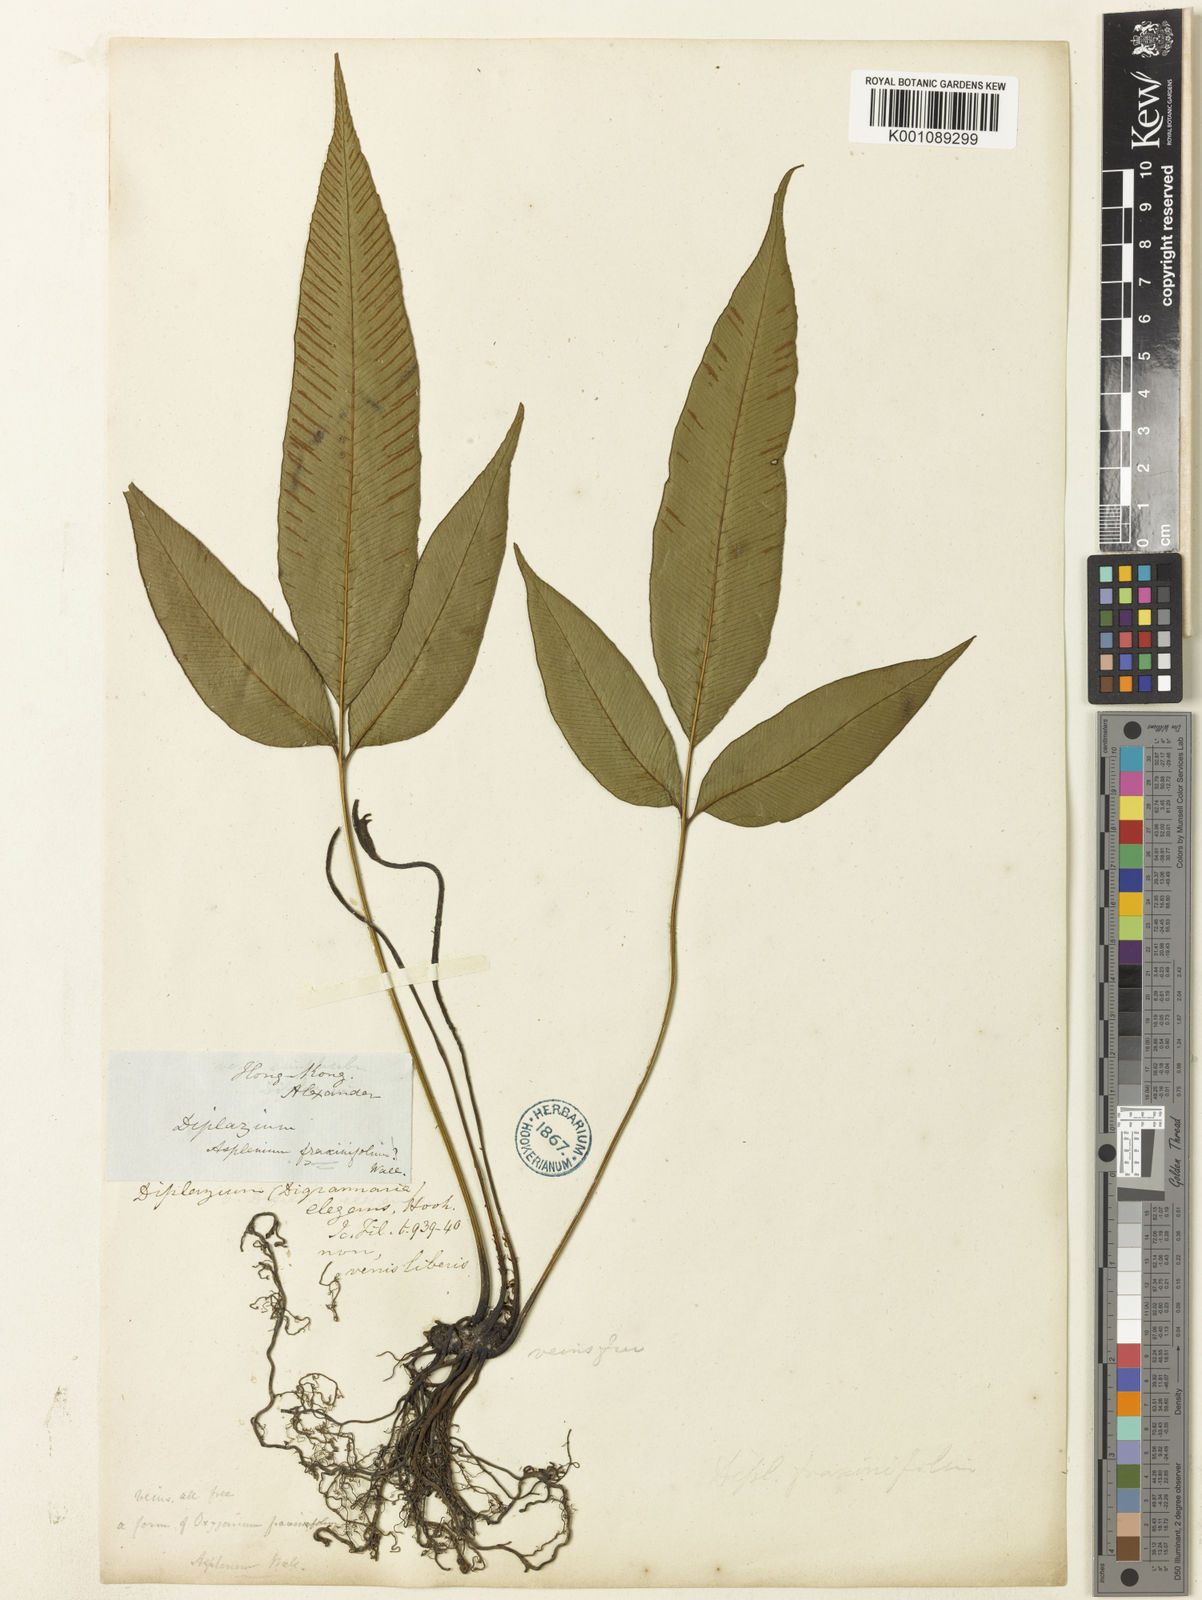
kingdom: Plantae
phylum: Tracheophyta
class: Polypodiopsida
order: Polypodiales
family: Athyriaceae
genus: Diplazium
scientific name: Diplazium lineolatum
